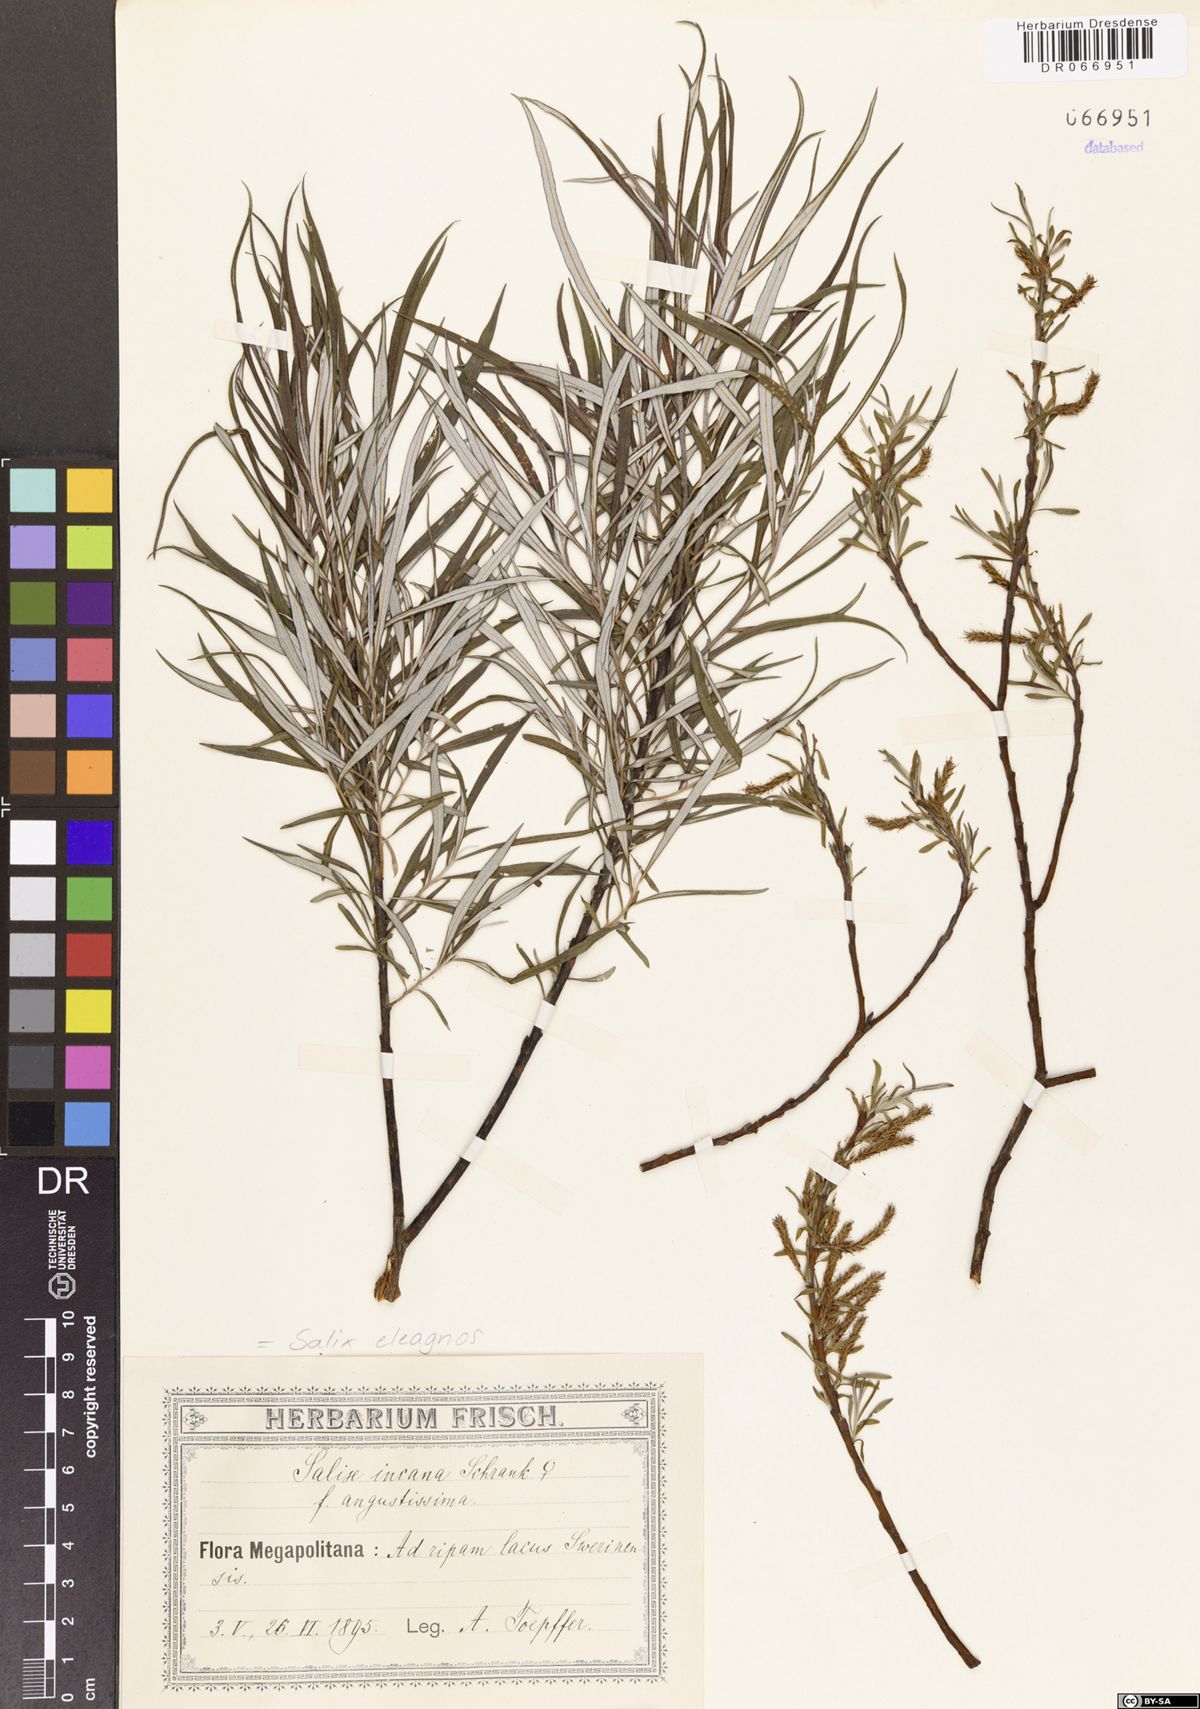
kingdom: Plantae
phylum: Tracheophyta
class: Magnoliopsida
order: Malpighiales
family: Salicaceae
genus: Salix
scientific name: Salix eleagnos
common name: Elaeagnus willow
